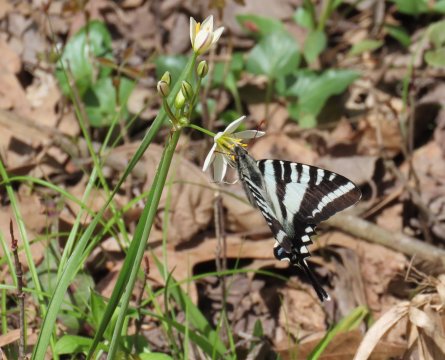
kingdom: Animalia
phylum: Arthropoda
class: Insecta
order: Lepidoptera
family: Papilionidae
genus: Protographium
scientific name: Protographium marcellus
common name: Zebra Swallowtail
